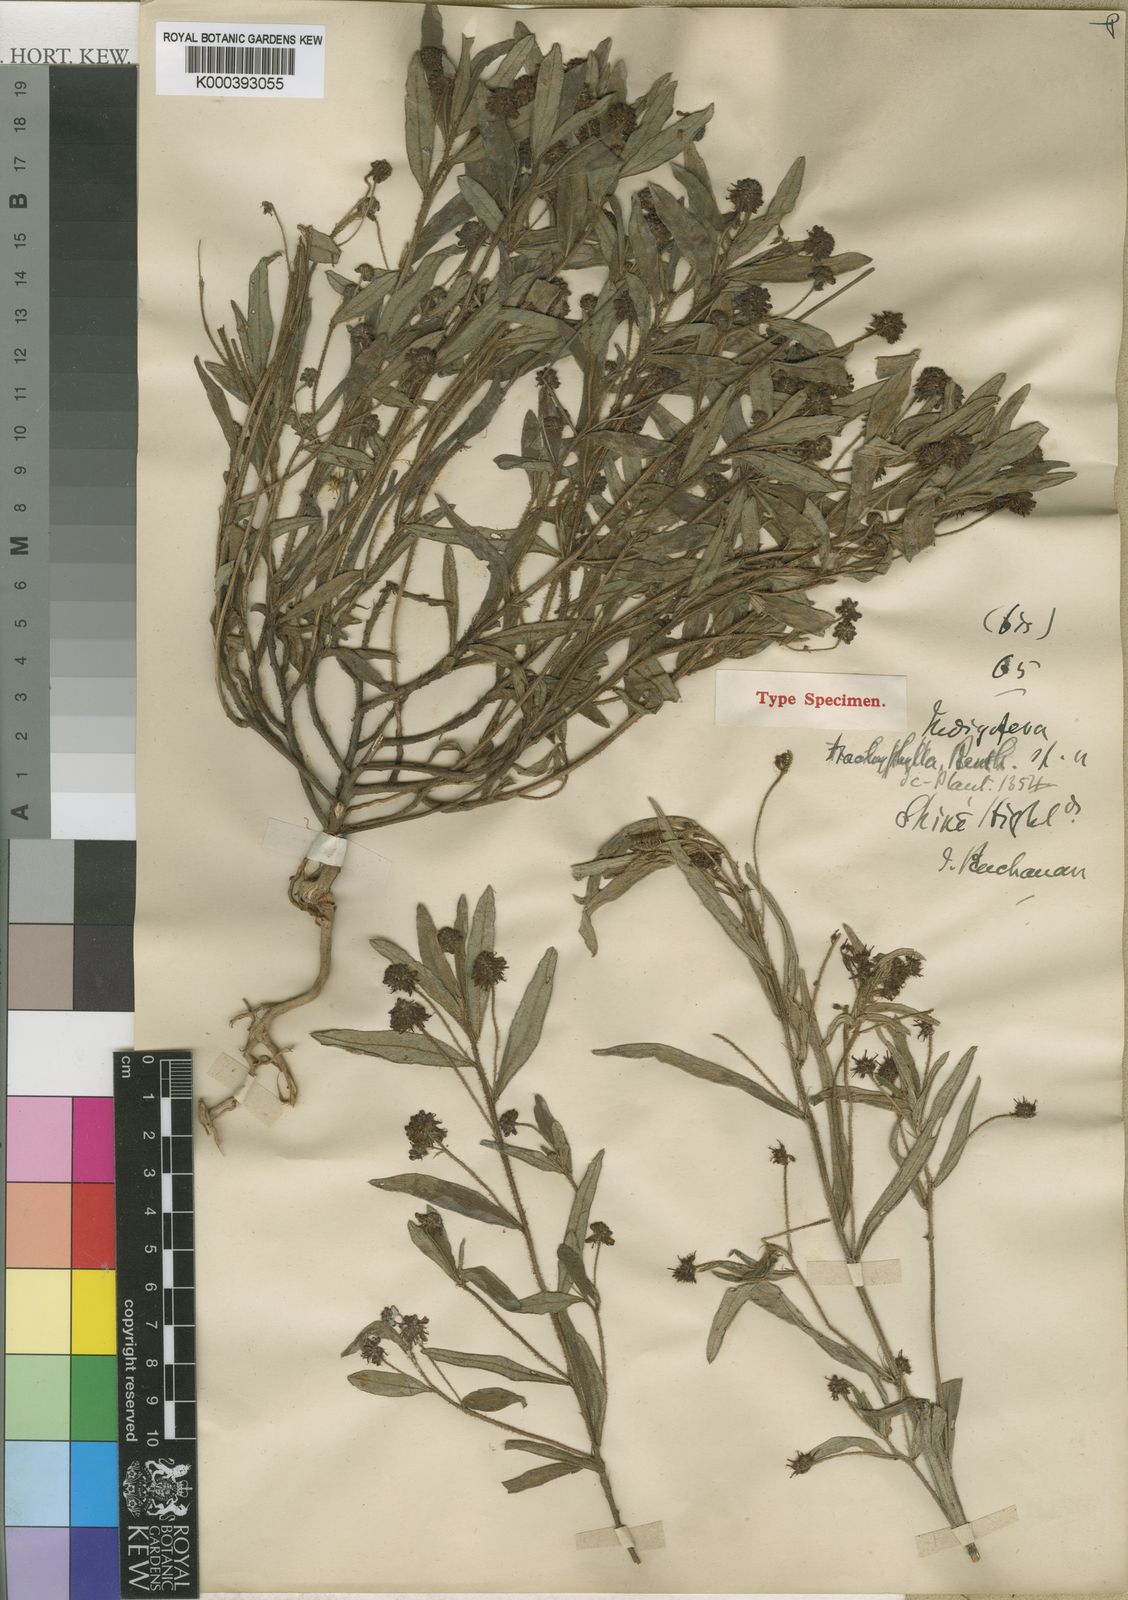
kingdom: Plantae
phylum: Tracheophyta
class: Magnoliopsida
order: Fabales
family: Fabaceae
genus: Indigofera
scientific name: Indigofera trachyphylla
